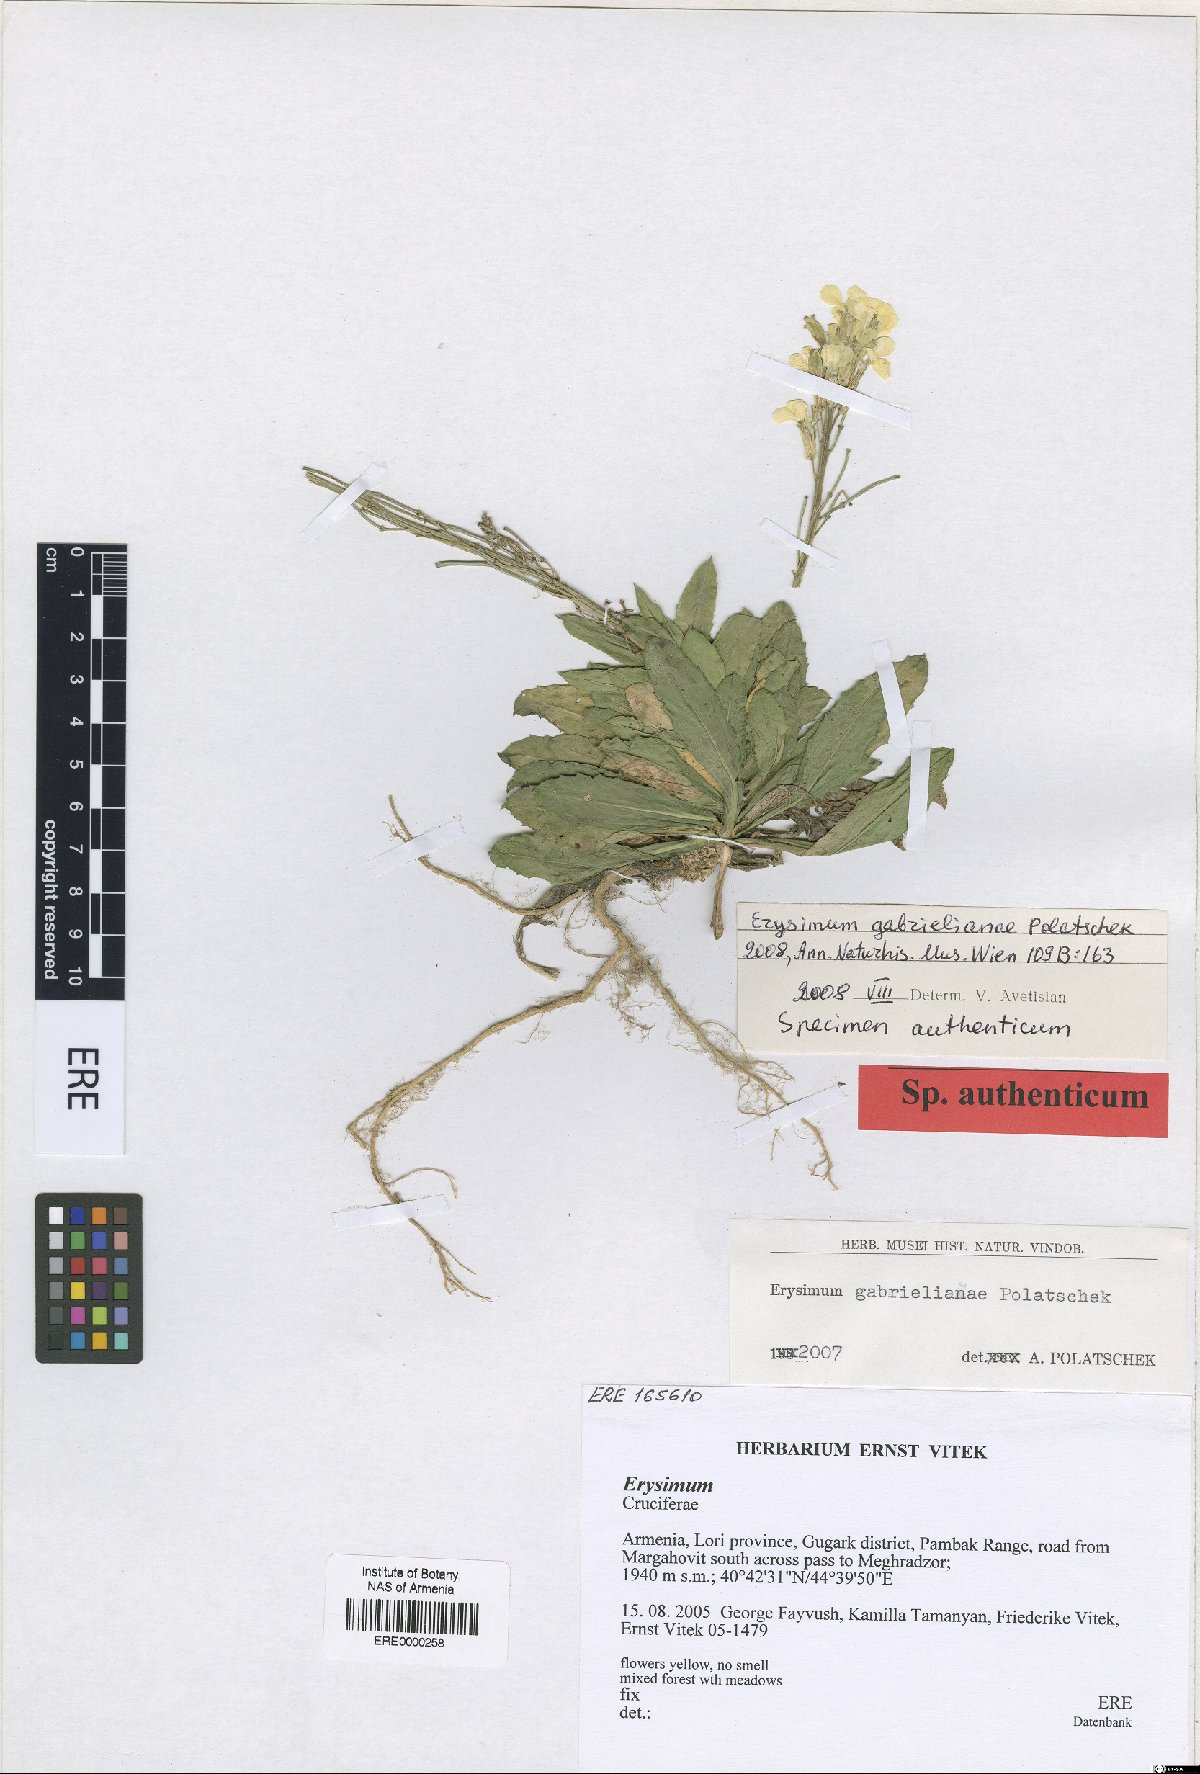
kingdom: Plantae
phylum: Tracheophyta
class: Magnoliopsida
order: Brassicales
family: Brassicaceae
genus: Erysimum
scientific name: Erysimum ibericum
